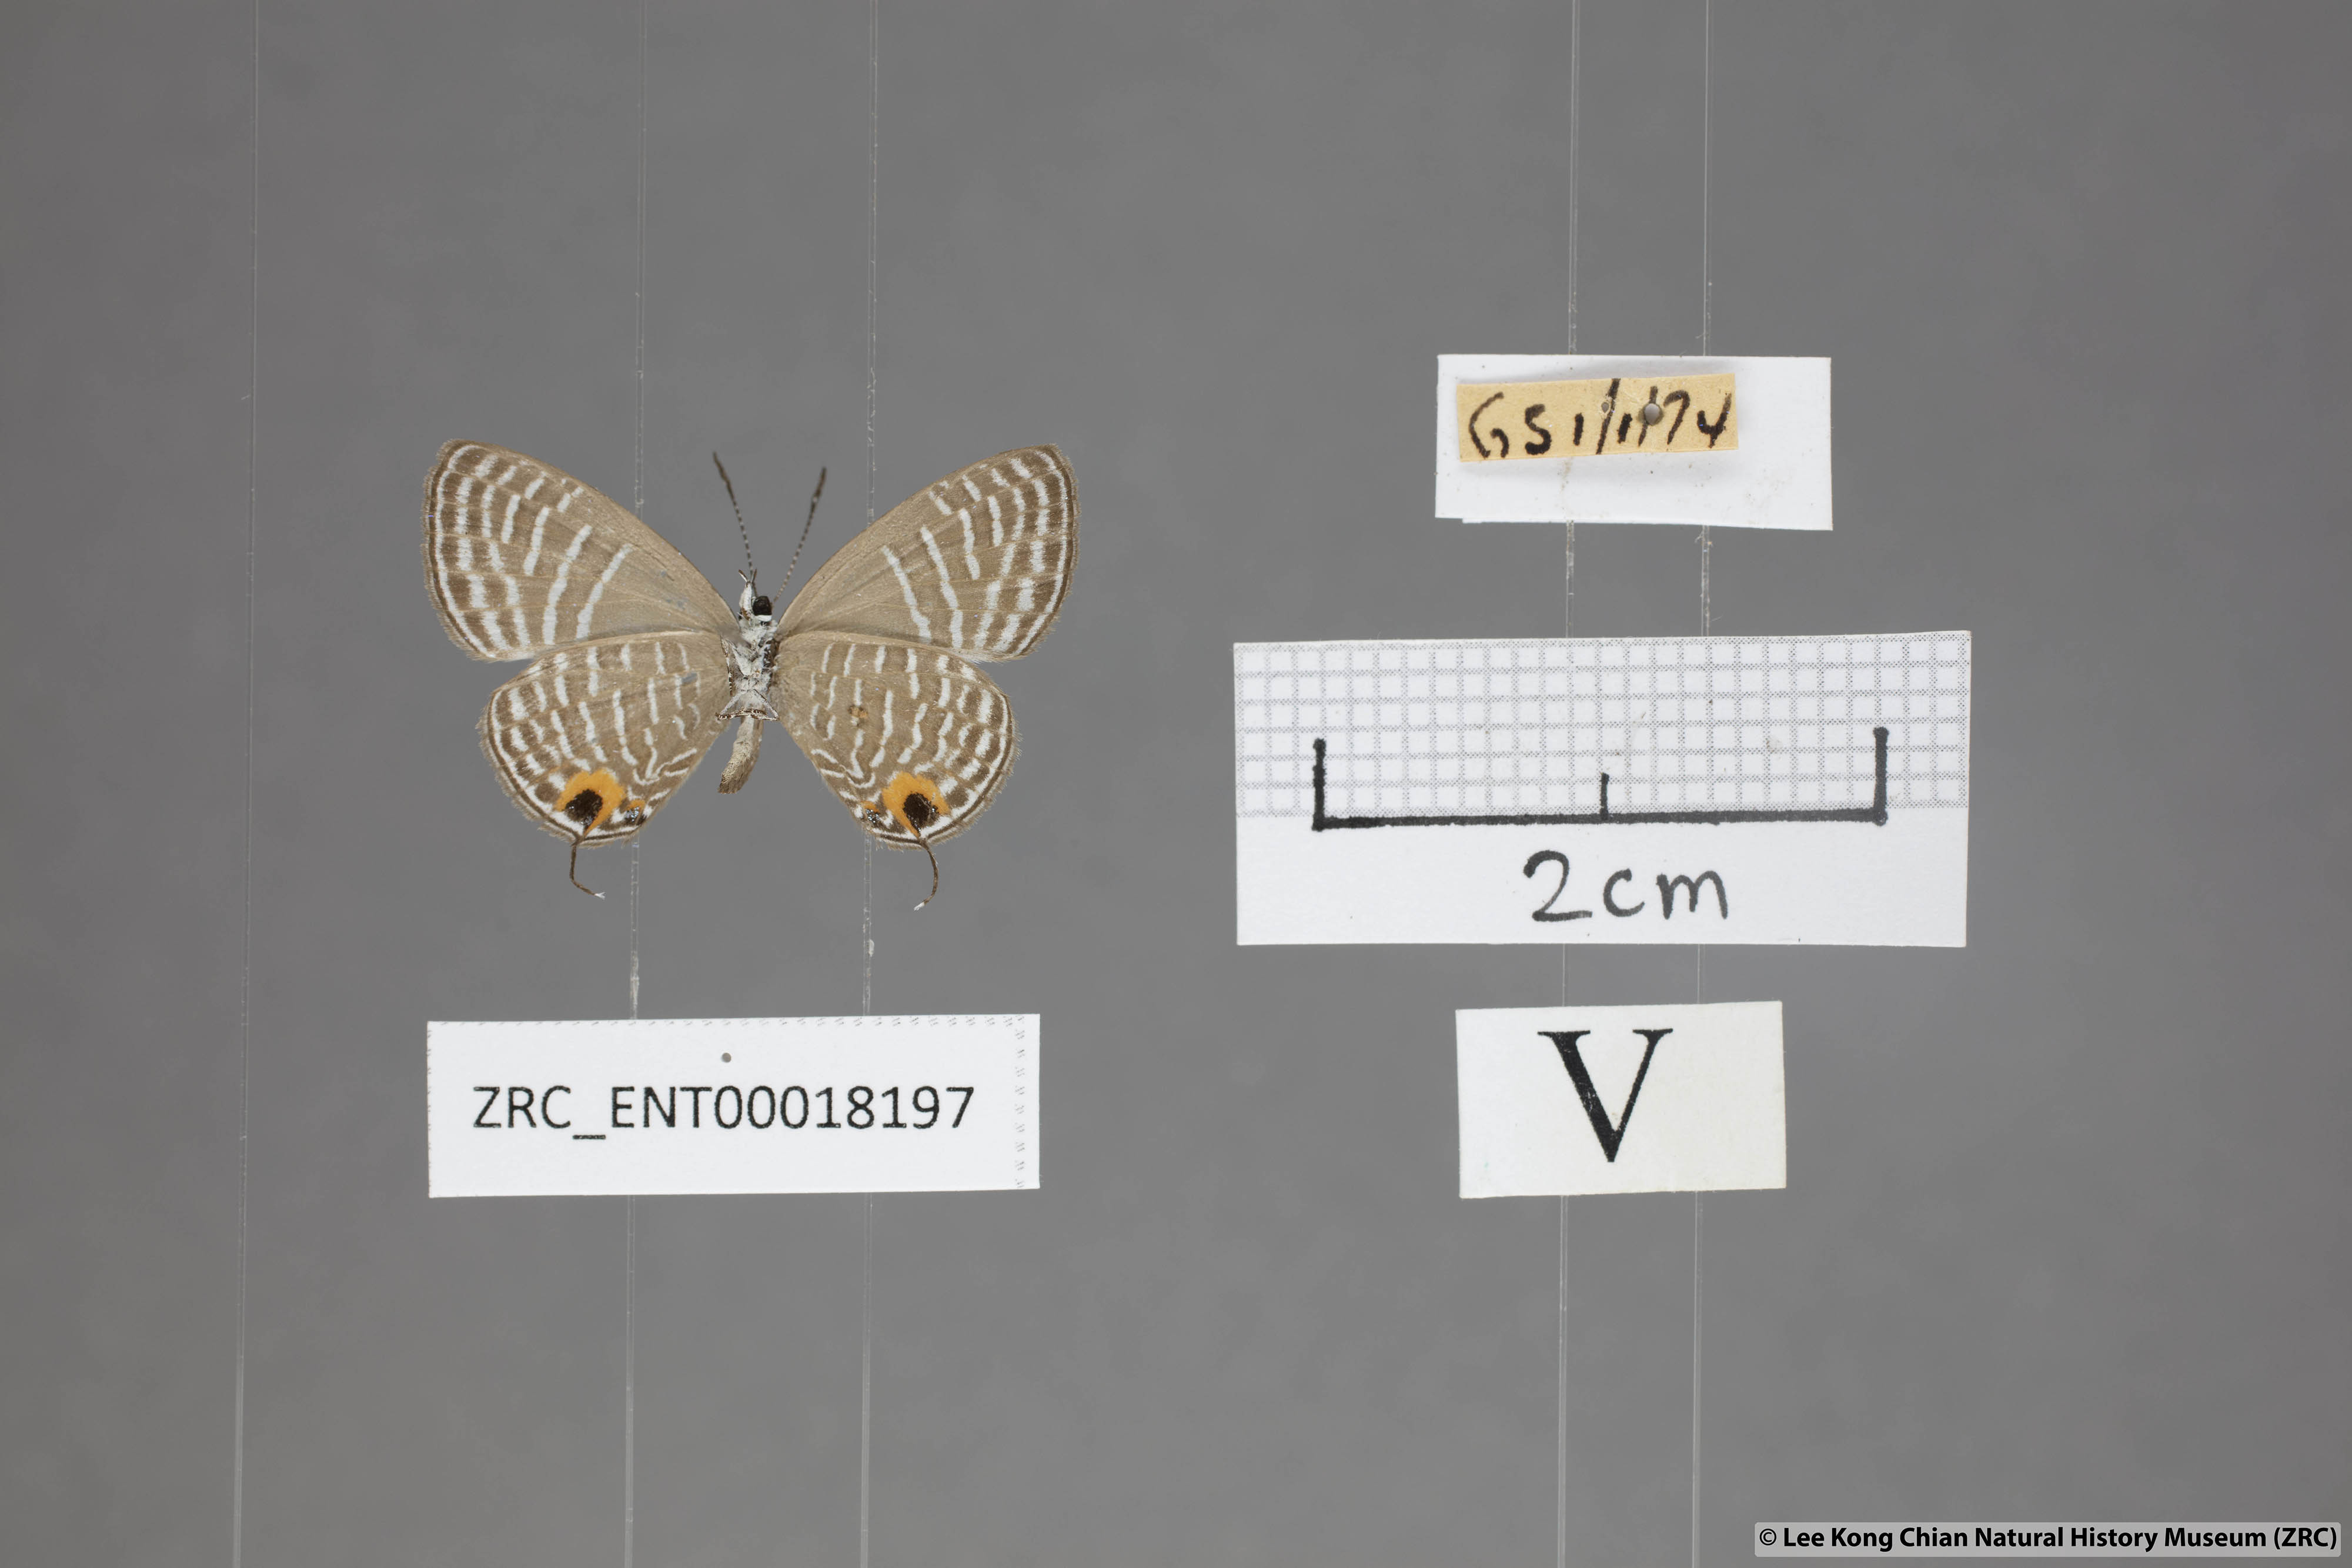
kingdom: Animalia
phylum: Arthropoda
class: Insecta
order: Lepidoptera
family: Lycaenidae
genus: Jamides
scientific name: Jamides talinga
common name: Lesser cerulean
